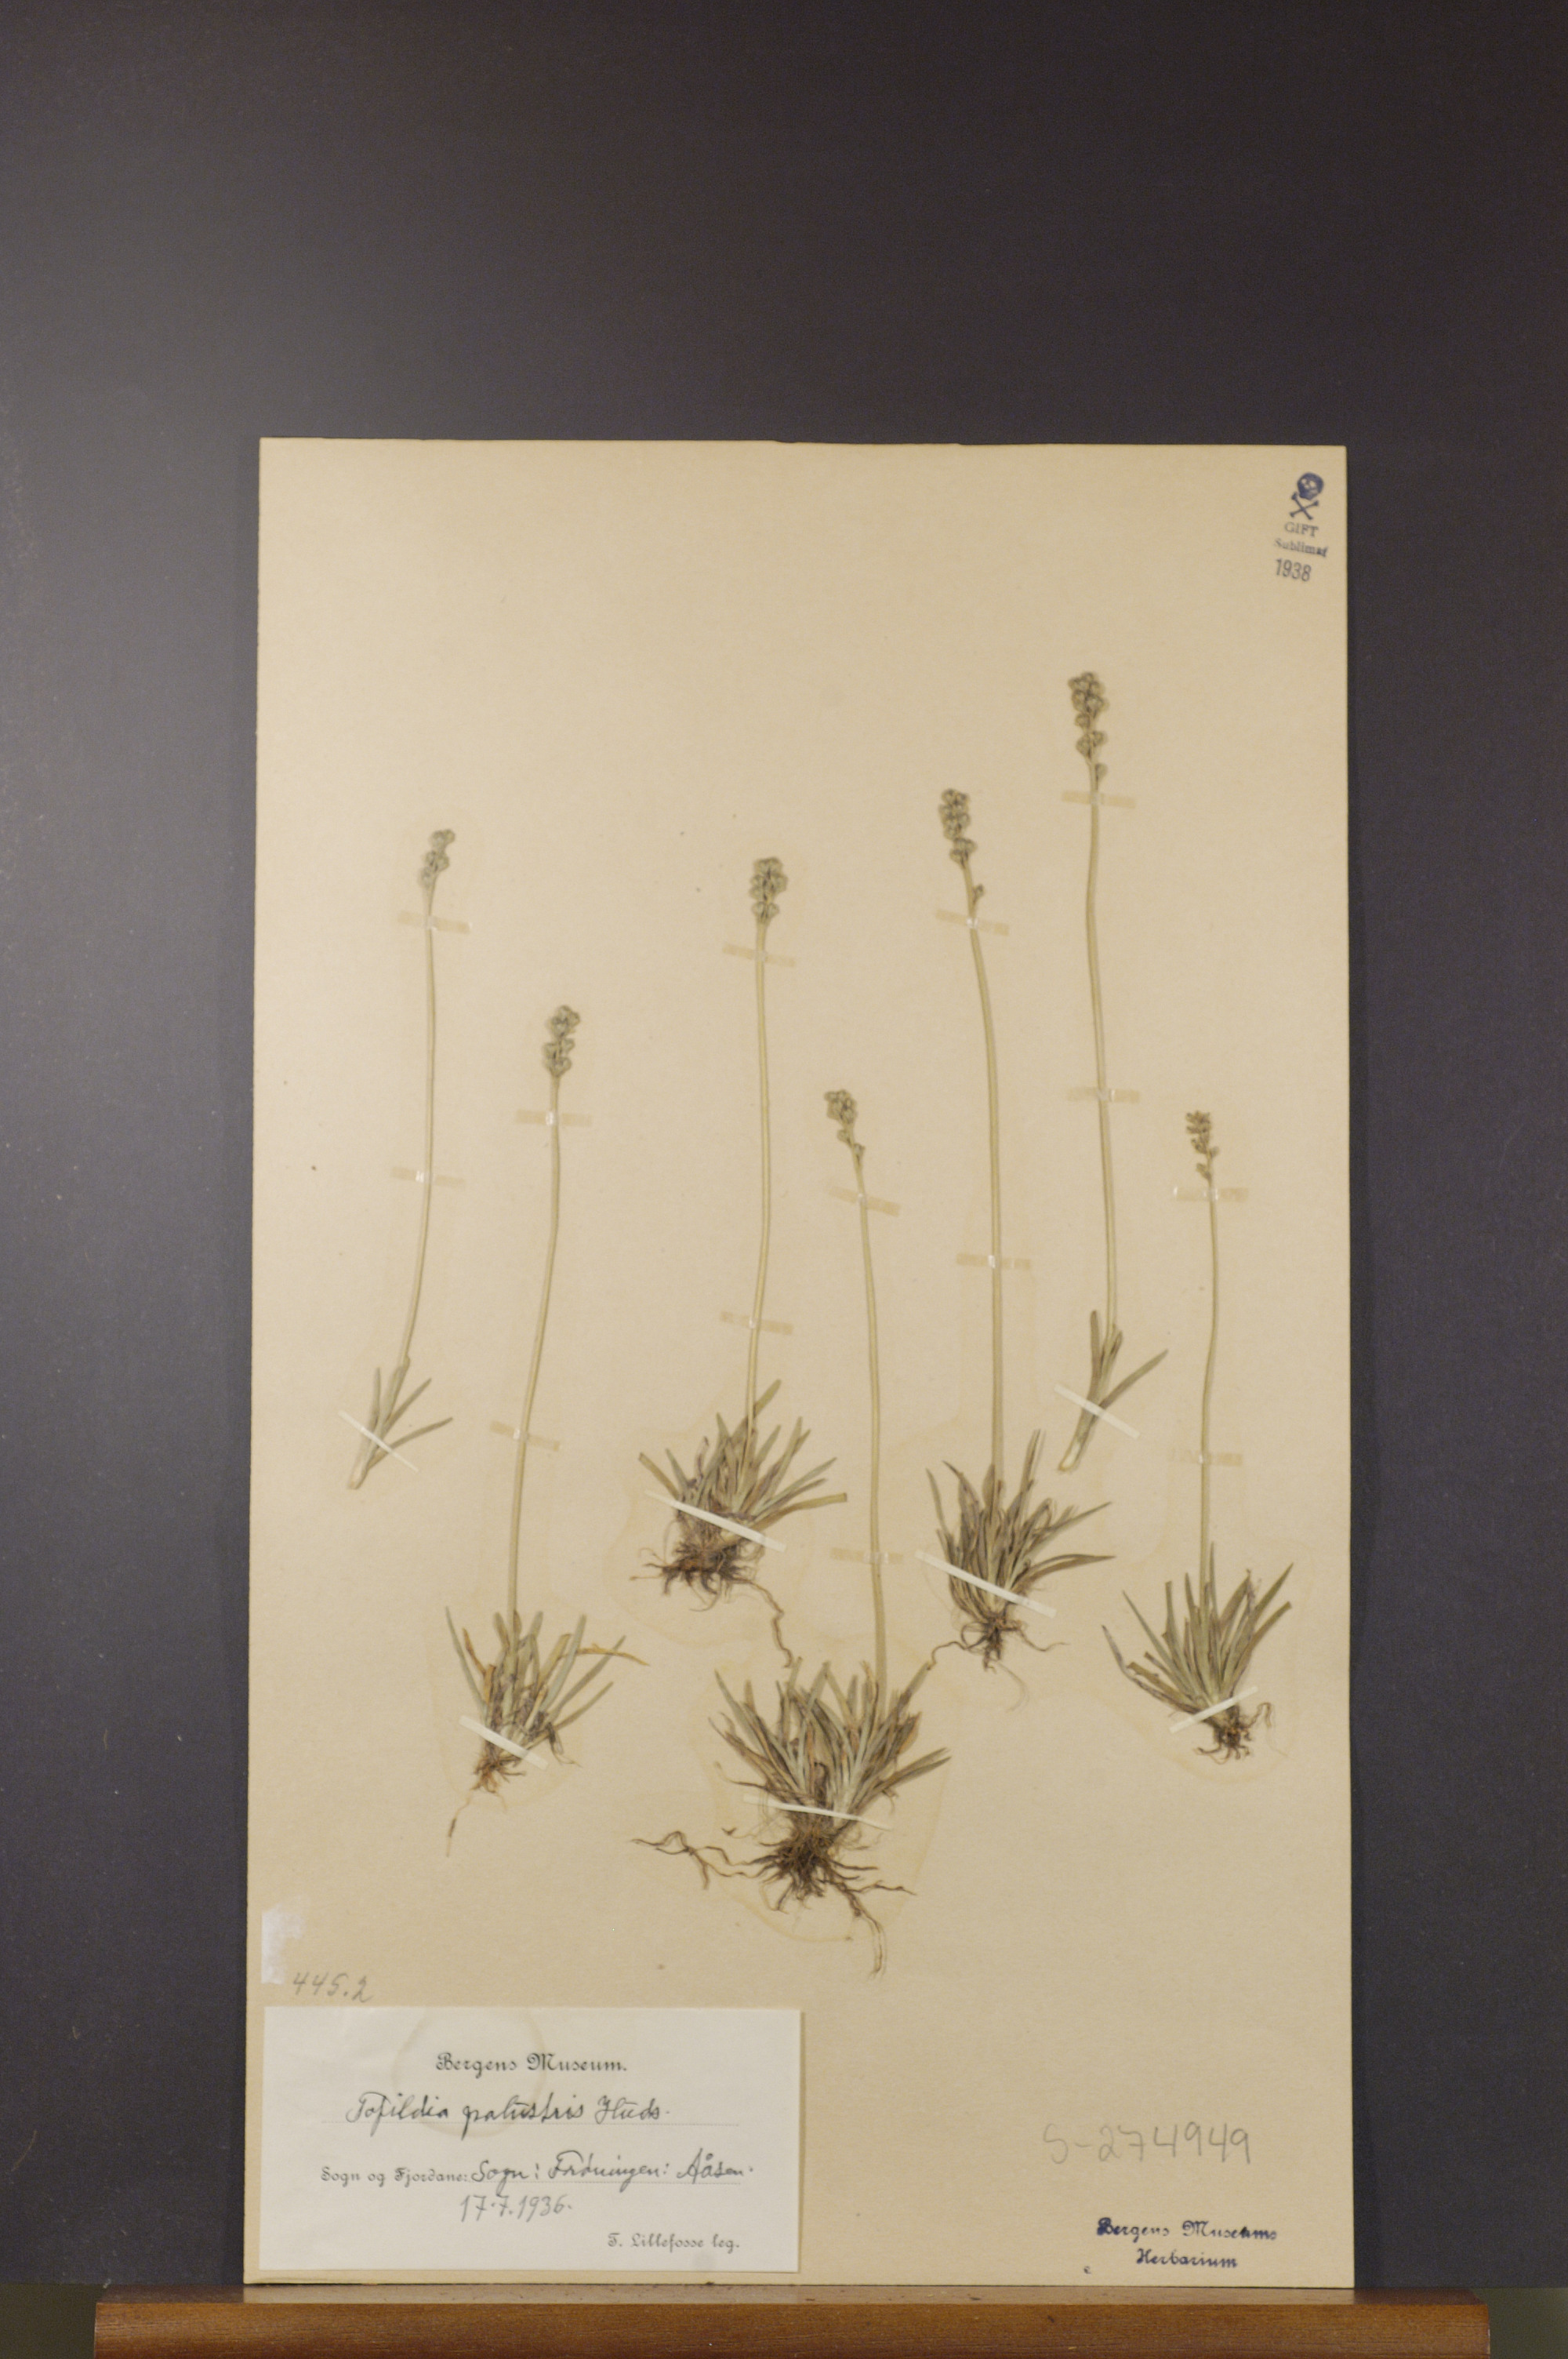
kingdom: Plantae
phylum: Tracheophyta
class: Liliopsida
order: Alismatales
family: Tofieldiaceae
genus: Tofieldia
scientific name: Tofieldia pusilla
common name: Scottish false asphodel
